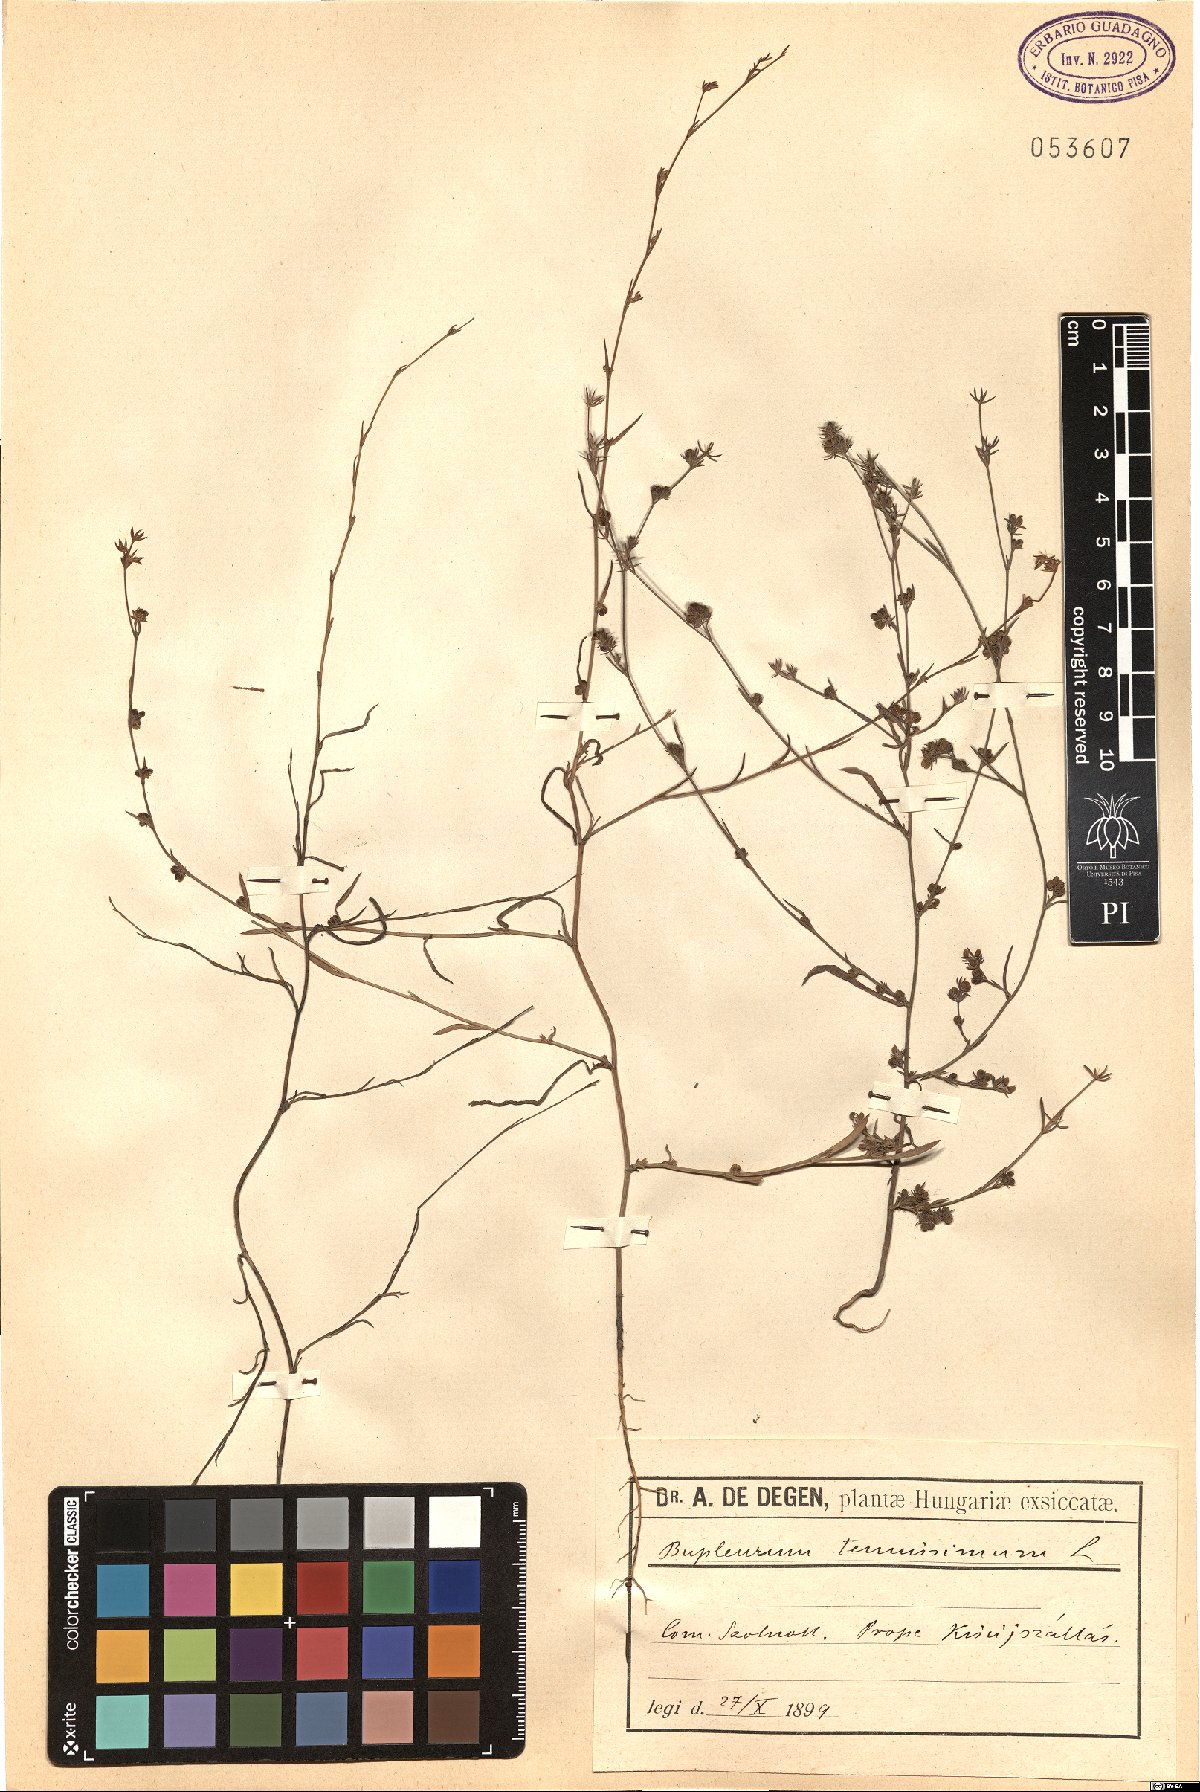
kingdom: Plantae
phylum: Tracheophyta
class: Magnoliopsida
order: Apiales
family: Apiaceae
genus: Bupleurum
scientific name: Bupleurum tenuissimum
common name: Slender hare's-ear
